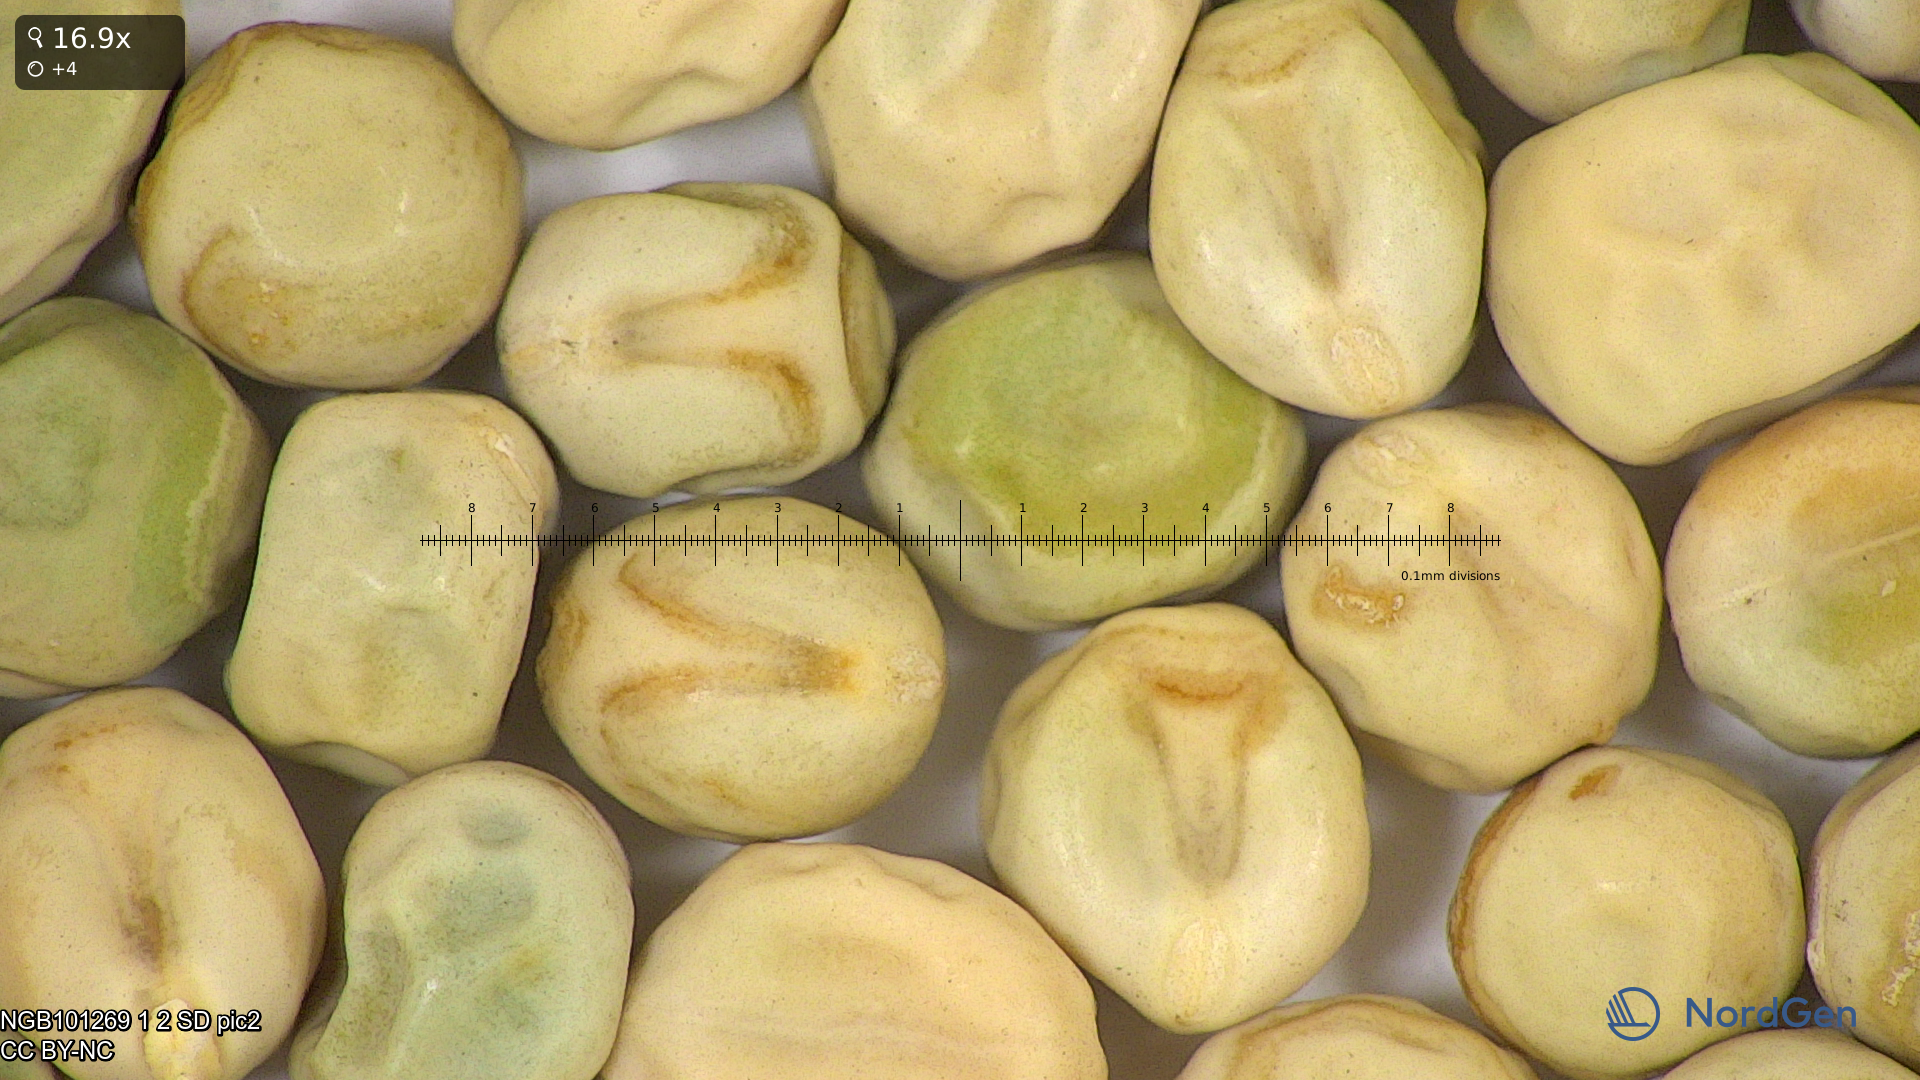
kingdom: Plantae
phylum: Tracheophyta
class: Magnoliopsida
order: Fabales
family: Fabaceae
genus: Lathyrus
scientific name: Lathyrus oleraceus
